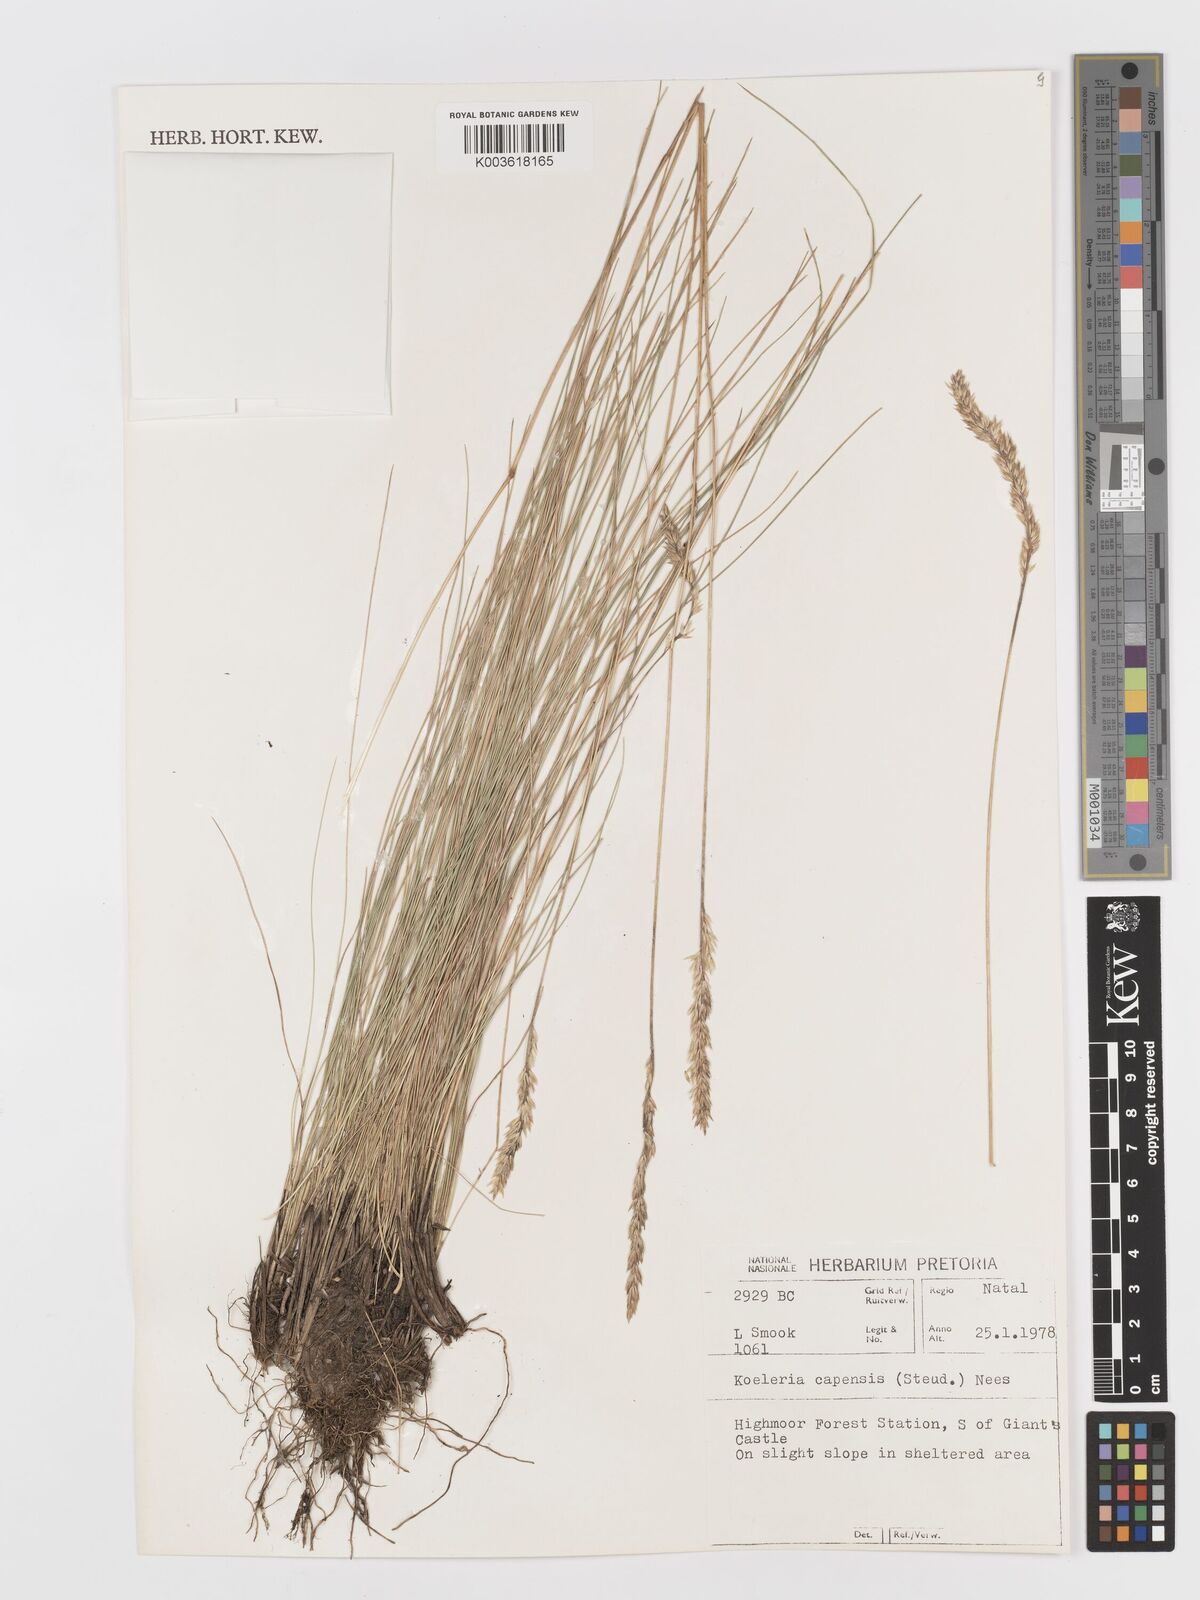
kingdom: Plantae
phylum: Tracheophyta
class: Liliopsida
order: Poales
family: Poaceae
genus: Koeleria
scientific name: Koeleria capensis
